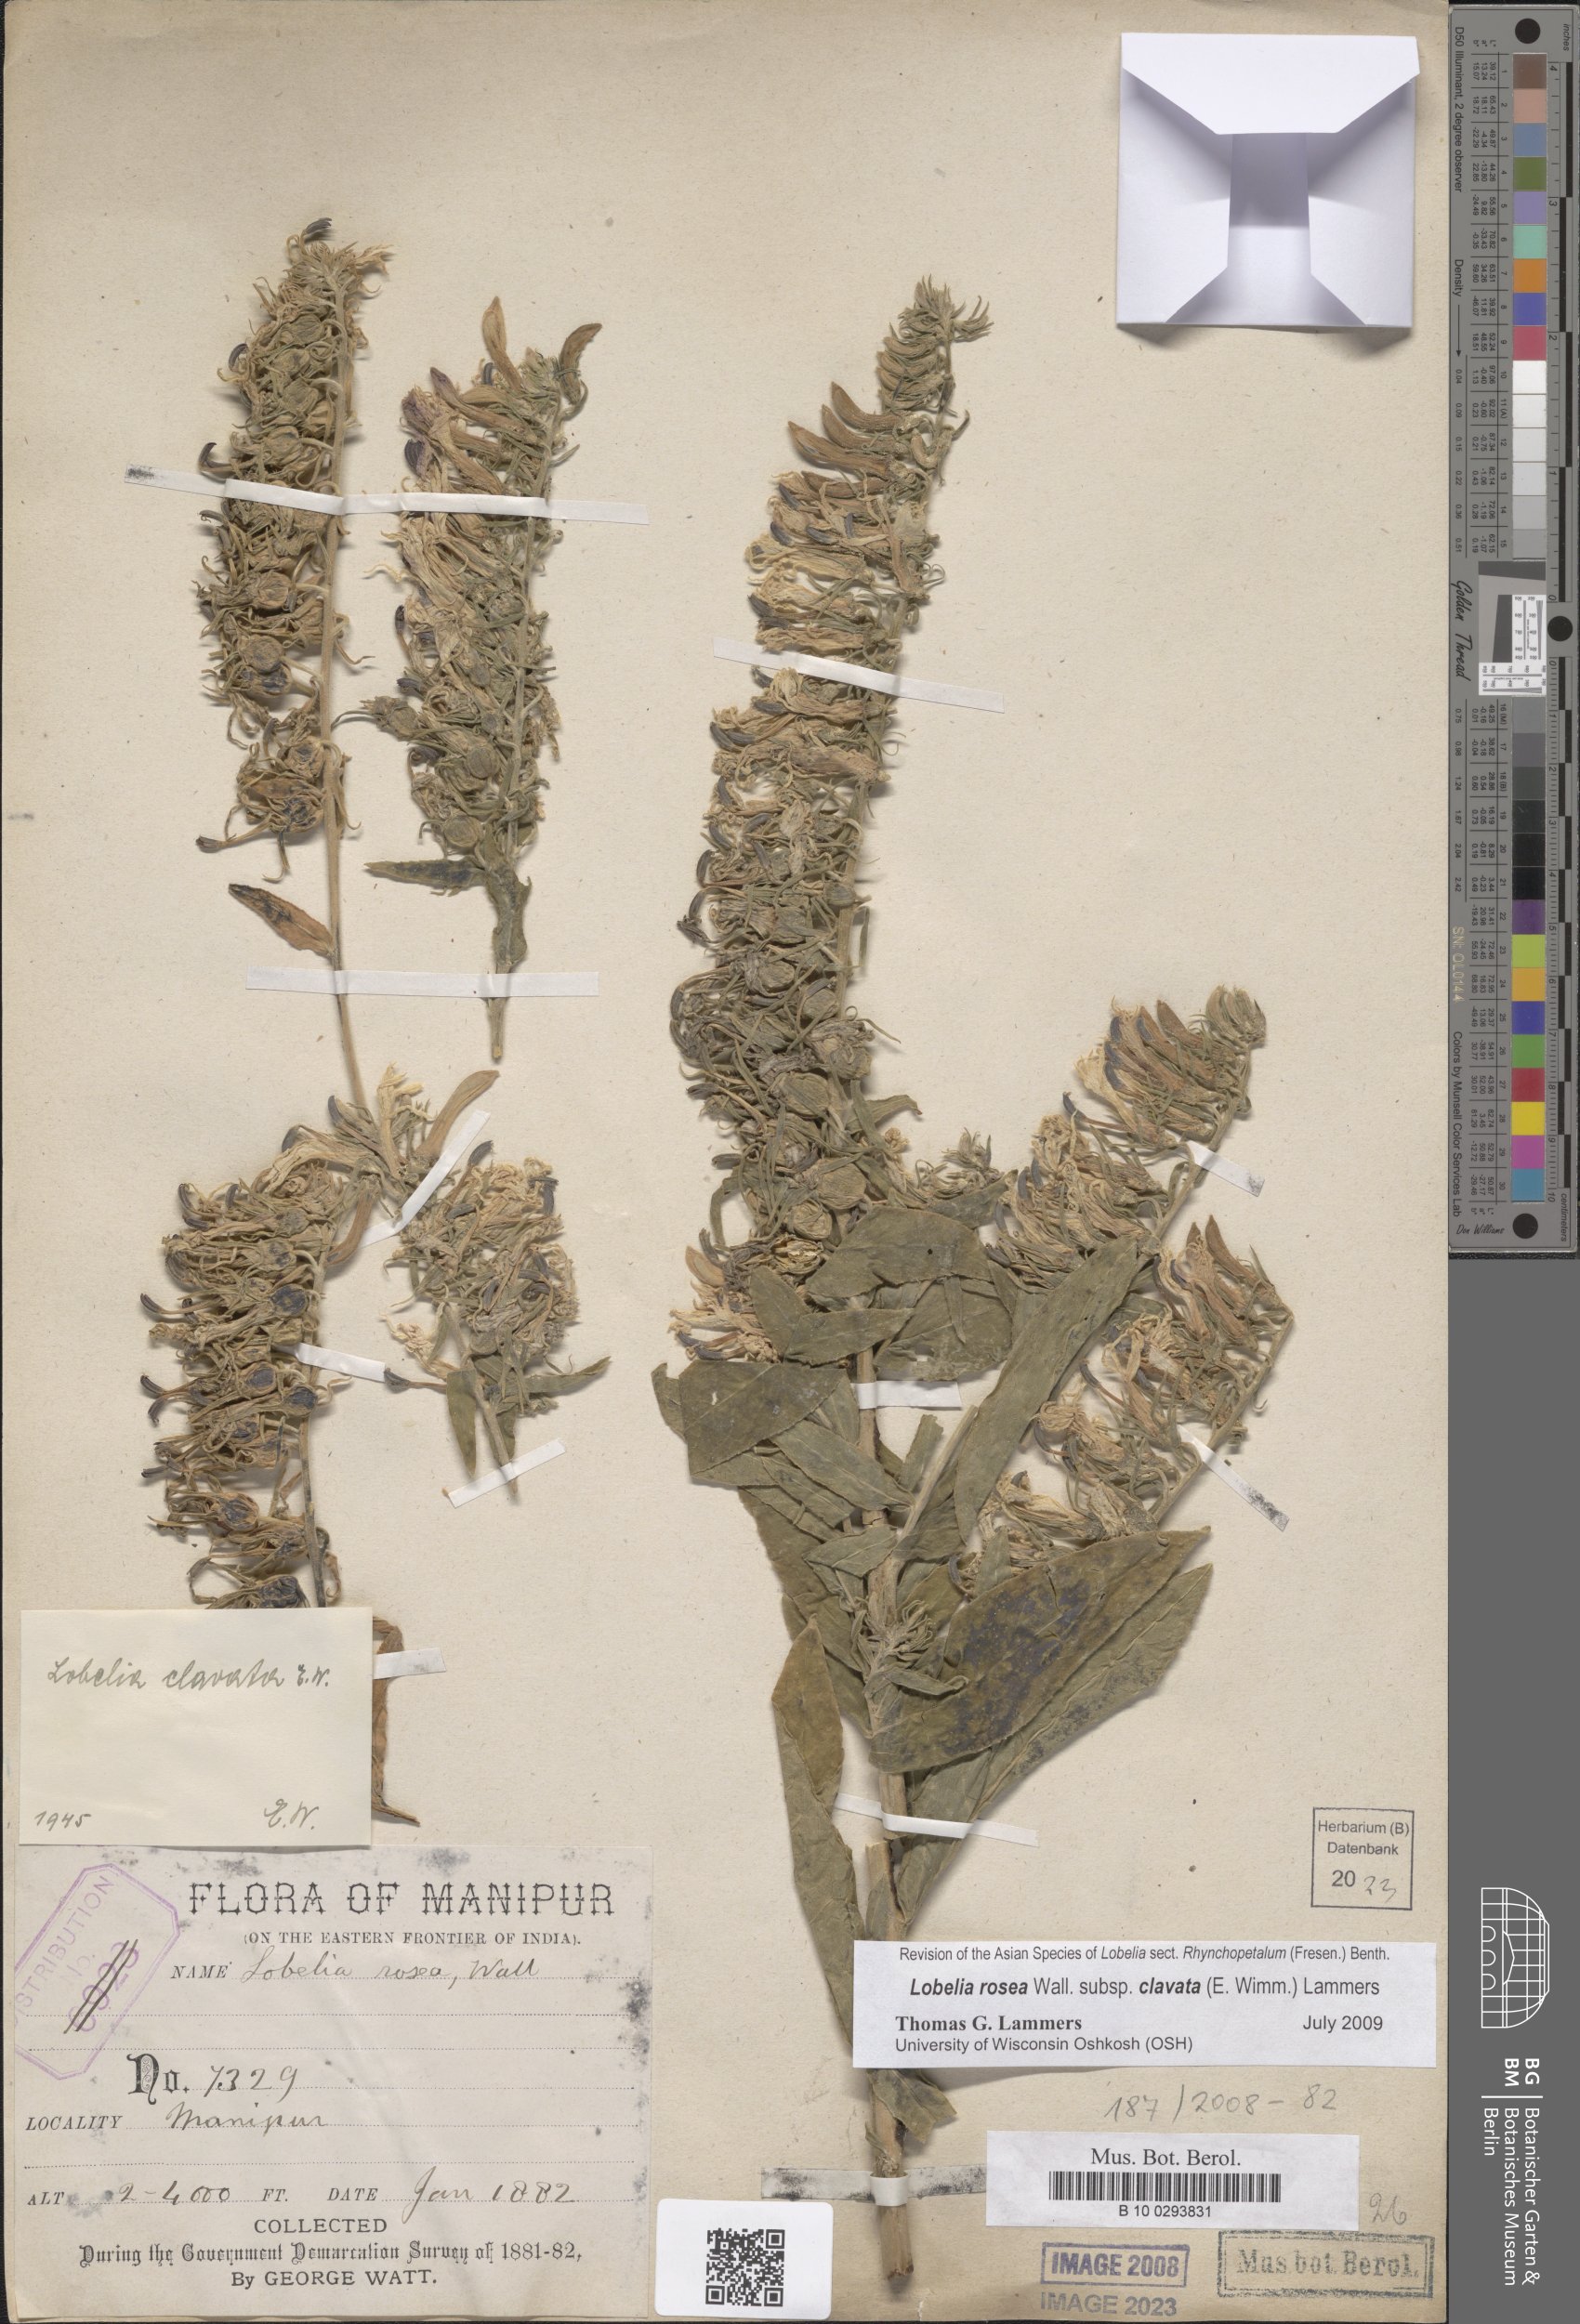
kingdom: Plantae
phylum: Tracheophyta
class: Magnoliopsida
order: Asterales
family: Campanulaceae
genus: Lobelia
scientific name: Lobelia clavata
